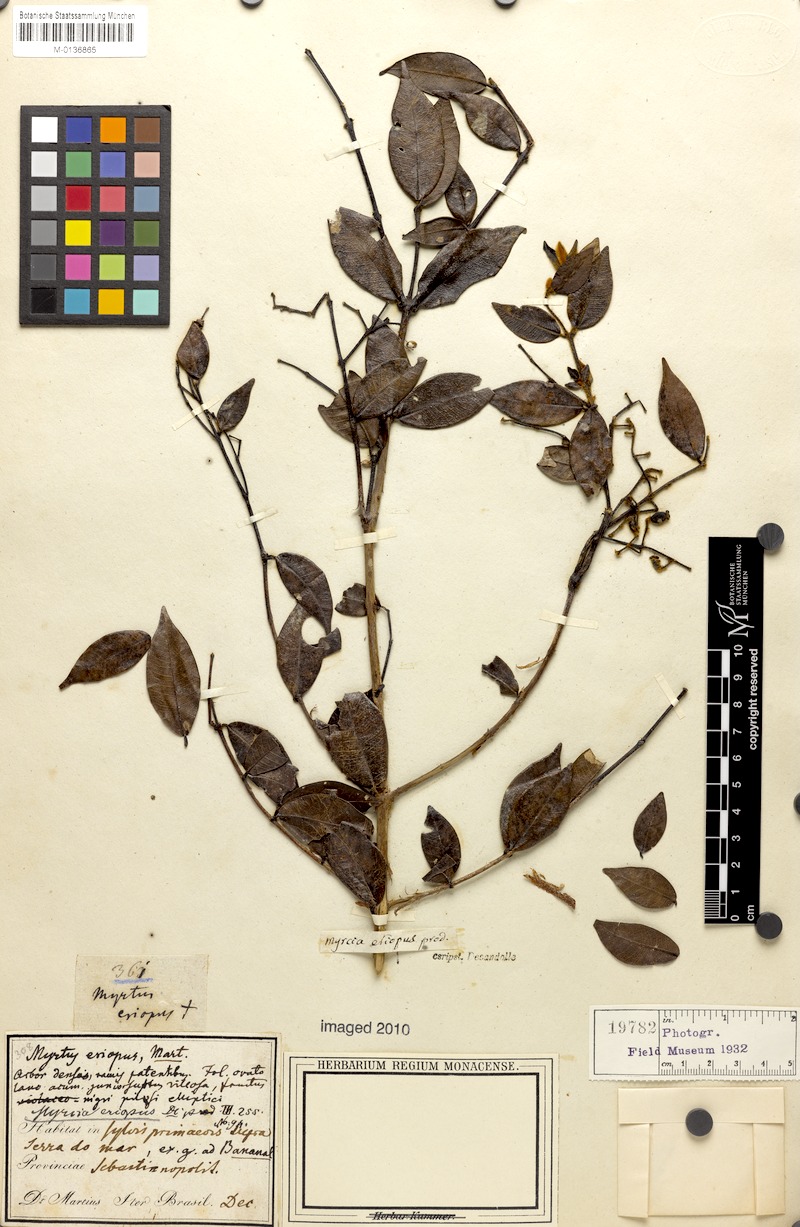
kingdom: Plantae
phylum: Tracheophyta
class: Magnoliopsida
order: Myrtales
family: Myrtaceae
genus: Myrcia
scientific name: Myrcia eriopus
